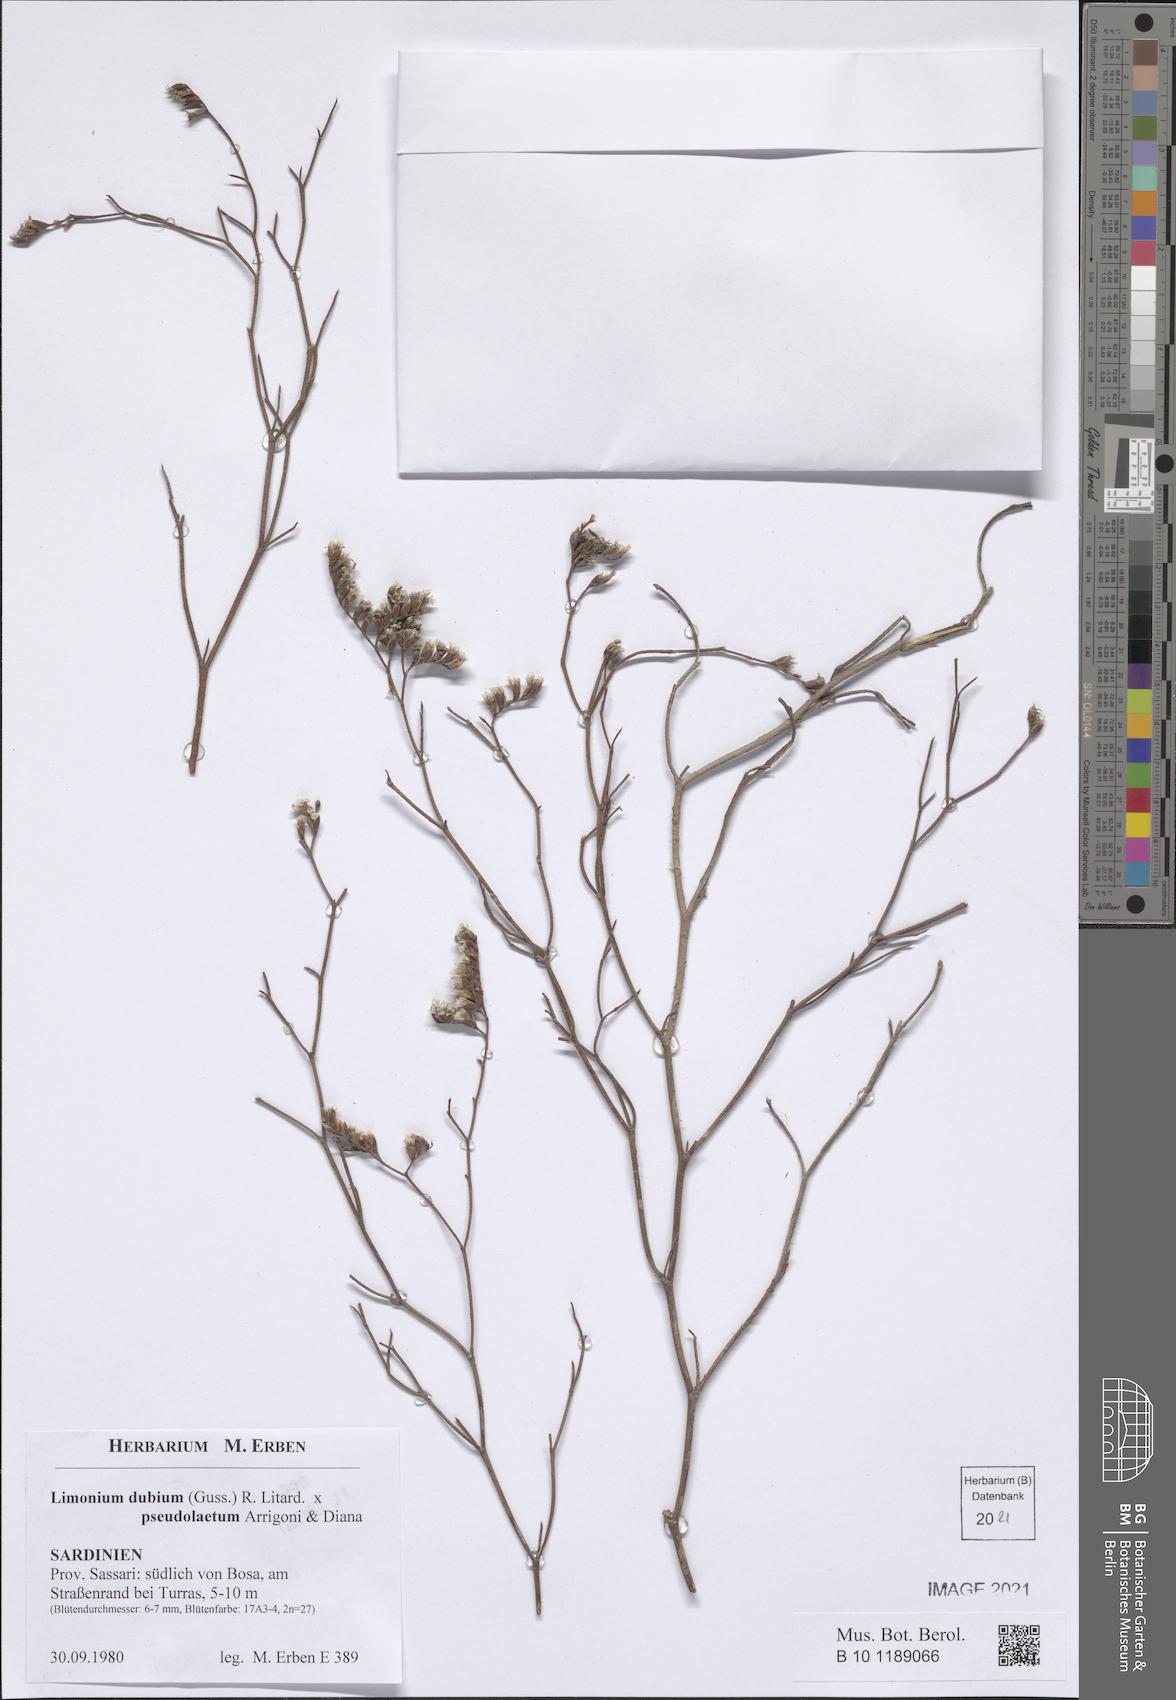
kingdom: Plantae
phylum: Tracheophyta
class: Magnoliopsida
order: Caryophyllales
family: Plumbaginaceae
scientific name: Plumbaginaceae
